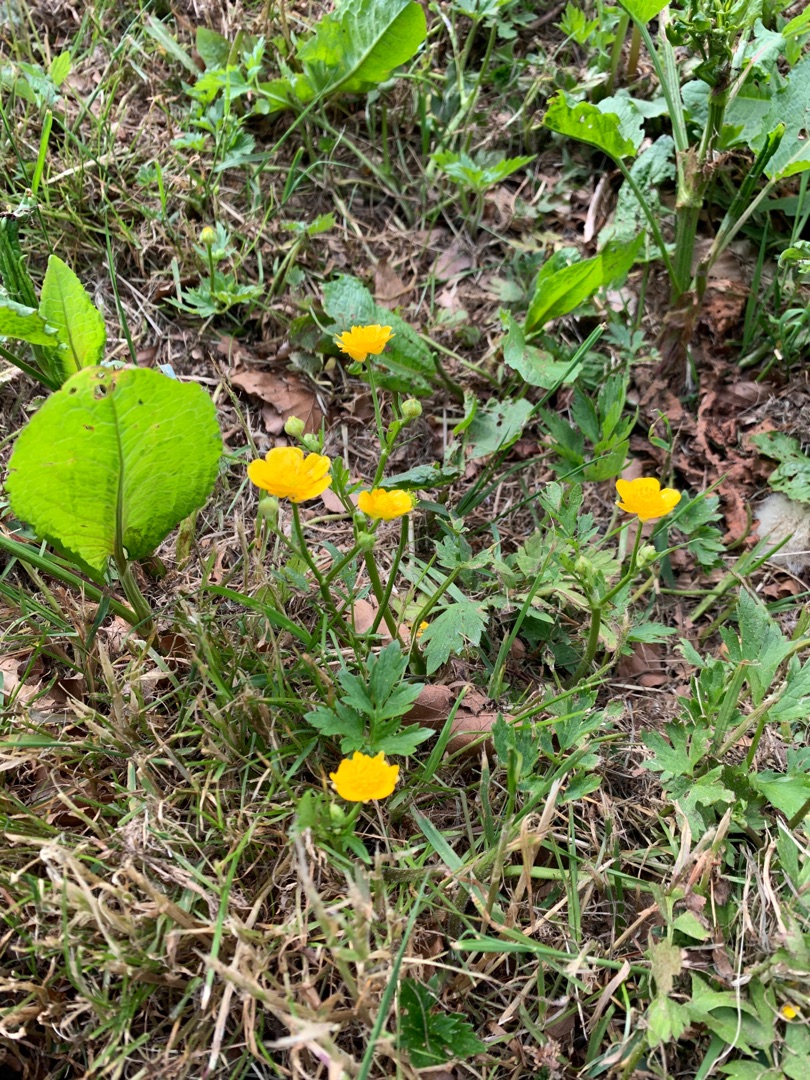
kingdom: Plantae
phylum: Tracheophyta
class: Magnoliopsida
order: Ranunculales
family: Ranunculaceae
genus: Ranunculus
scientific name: Ranunculus repens
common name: Lav ranunkel
